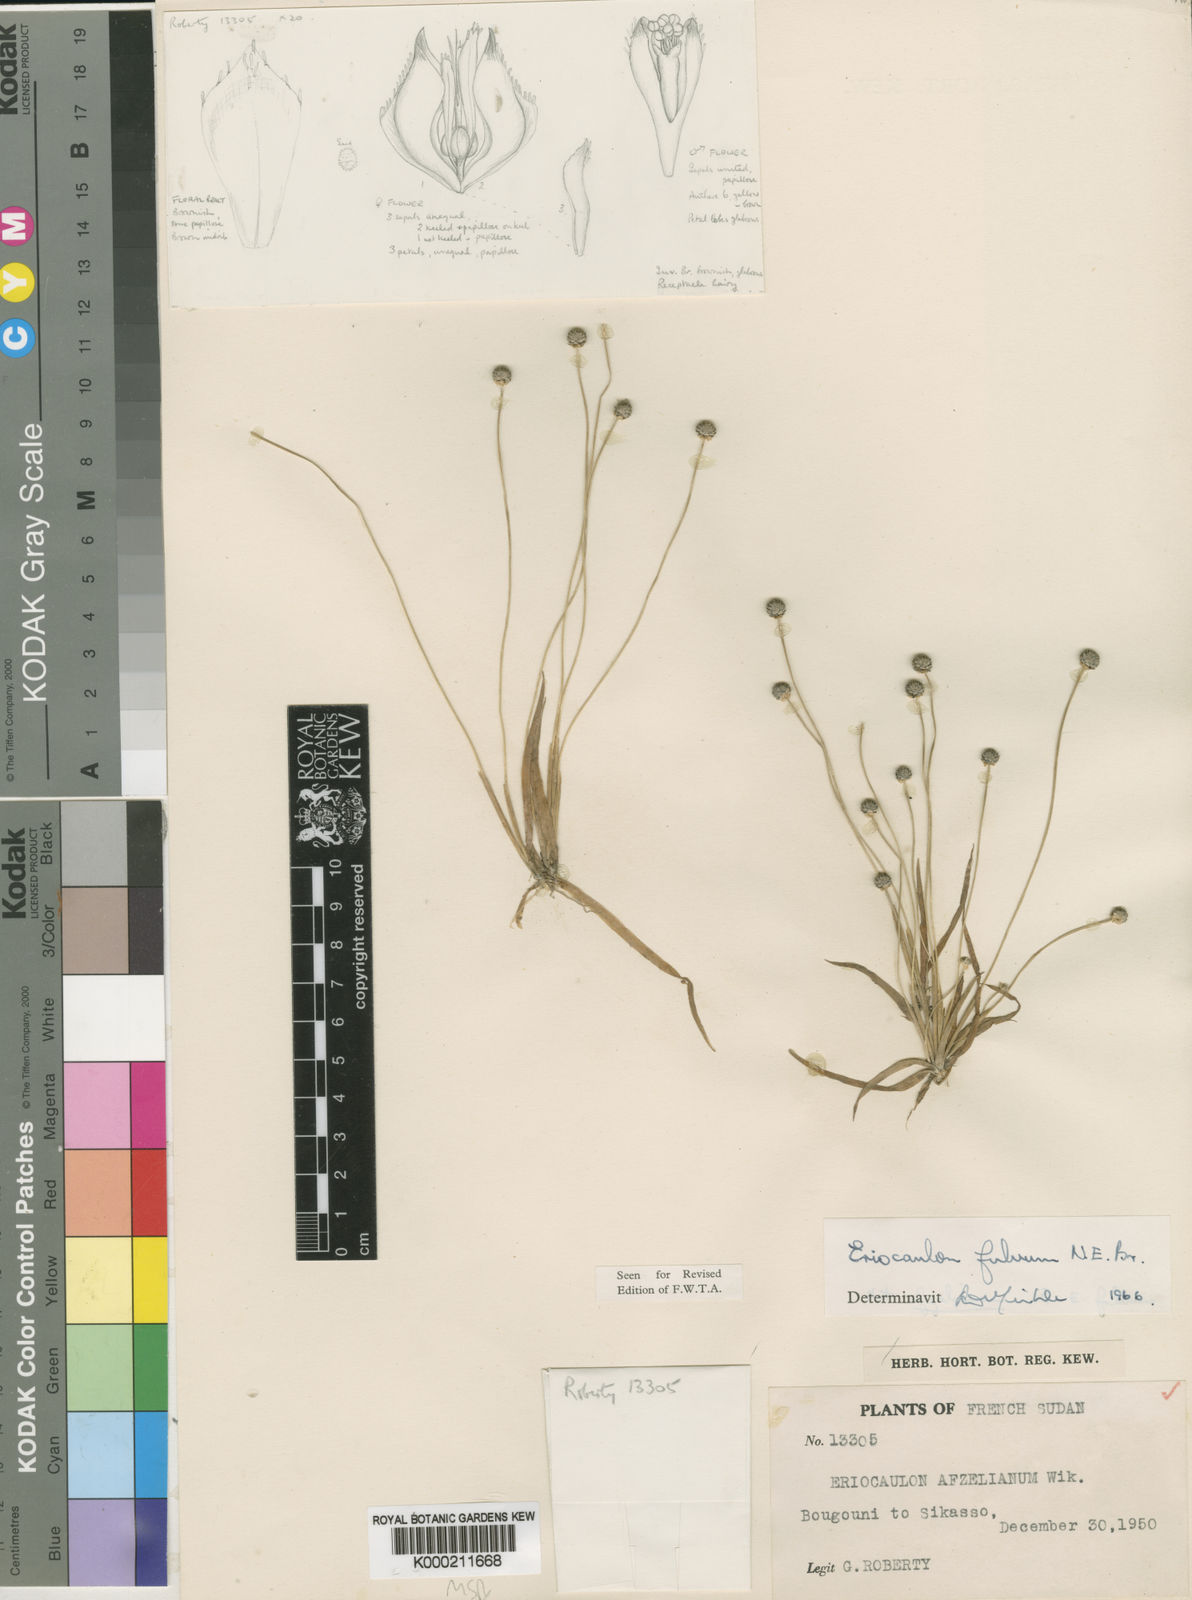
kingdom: Plantae
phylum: Tracheophyta
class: Liliopsida
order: Poales
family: Eriocaulaceae
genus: Eriocaulon
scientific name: Eriocaulon fulvum
